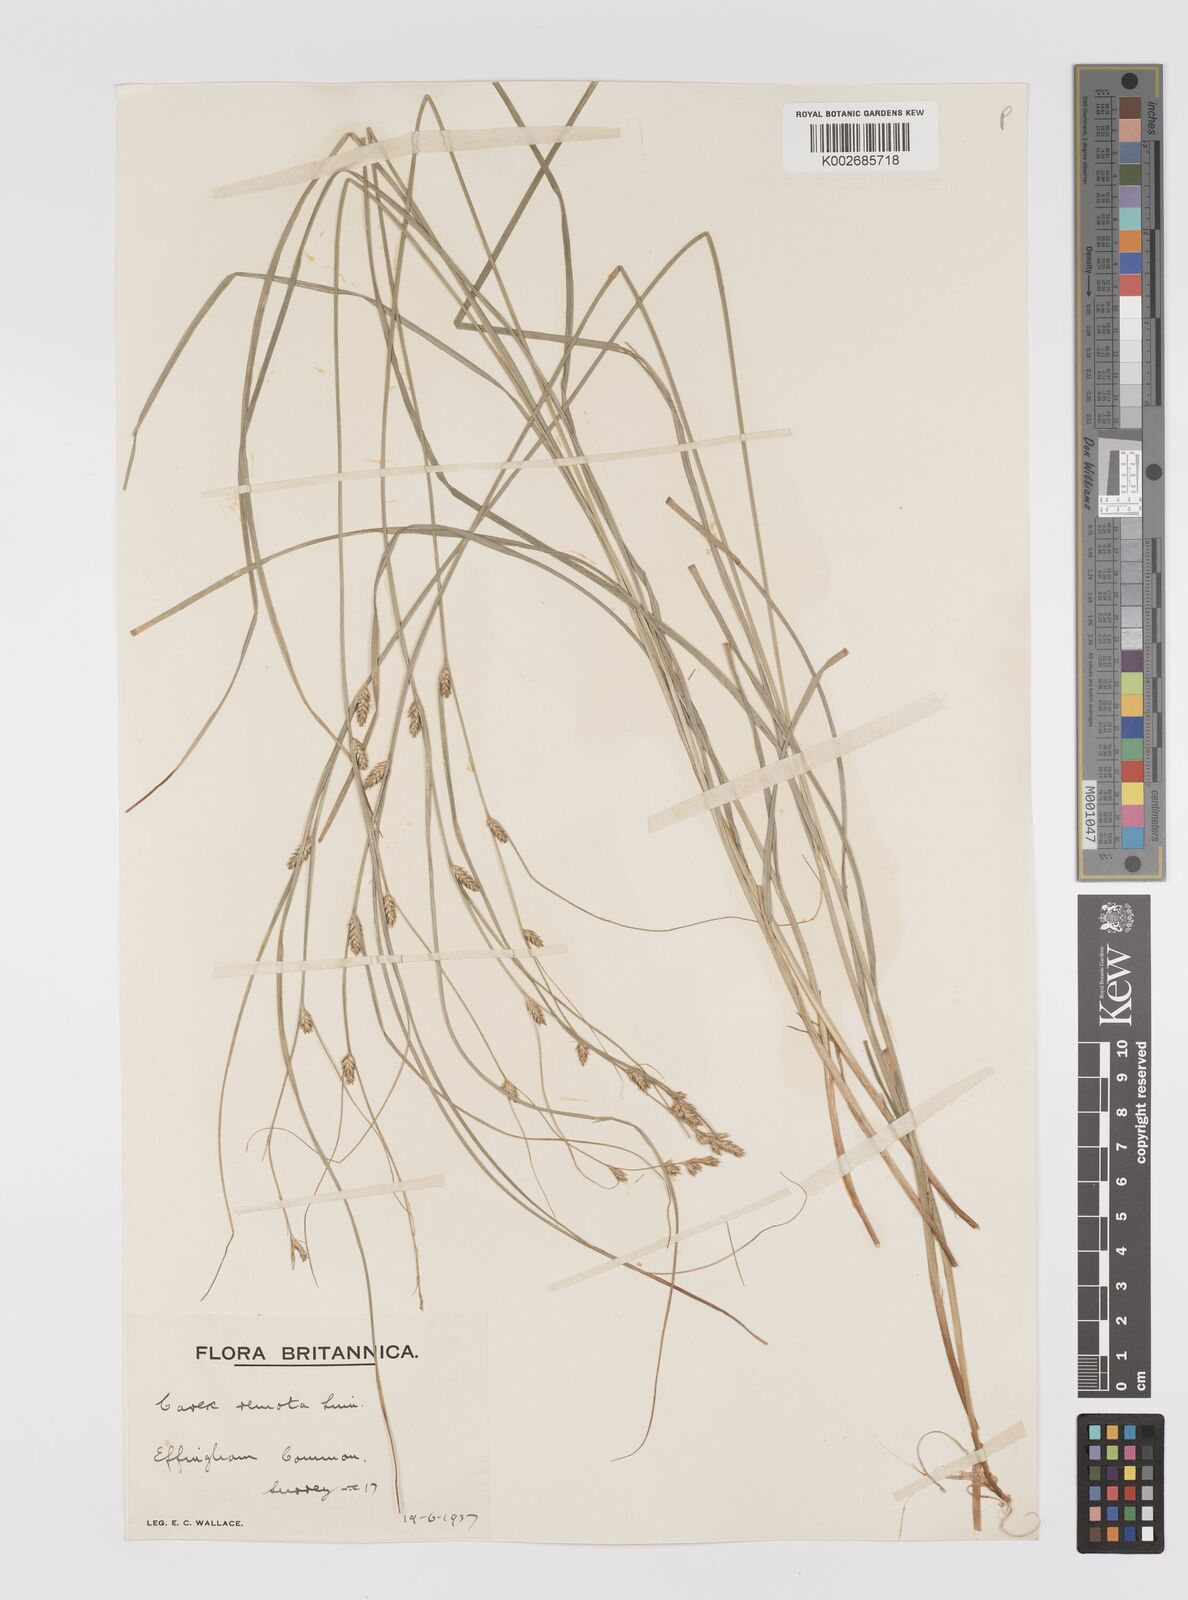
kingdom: Plantae
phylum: Tracheophyta
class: Liliopsida
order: Poales
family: Cyperaceae
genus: Carex
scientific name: Carex remota
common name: Remote sedge
